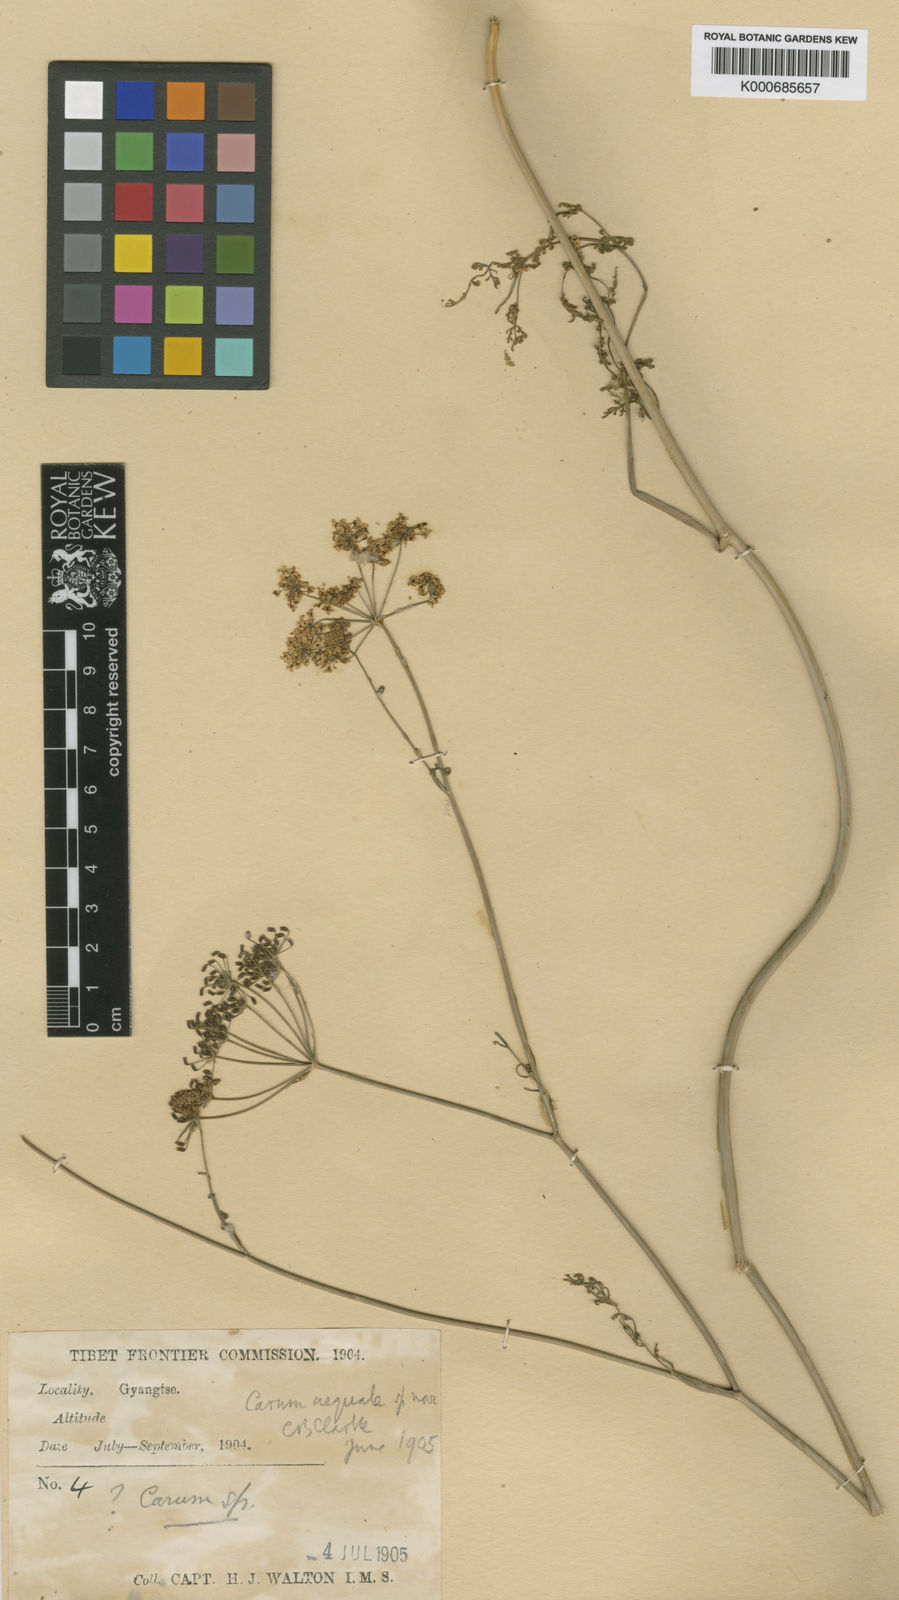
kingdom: Plantae
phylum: Tracheophyta
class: Magnoliopsida
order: Apiales
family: Apiaceae
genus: Carum
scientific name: Carum carvi
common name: Caraway
